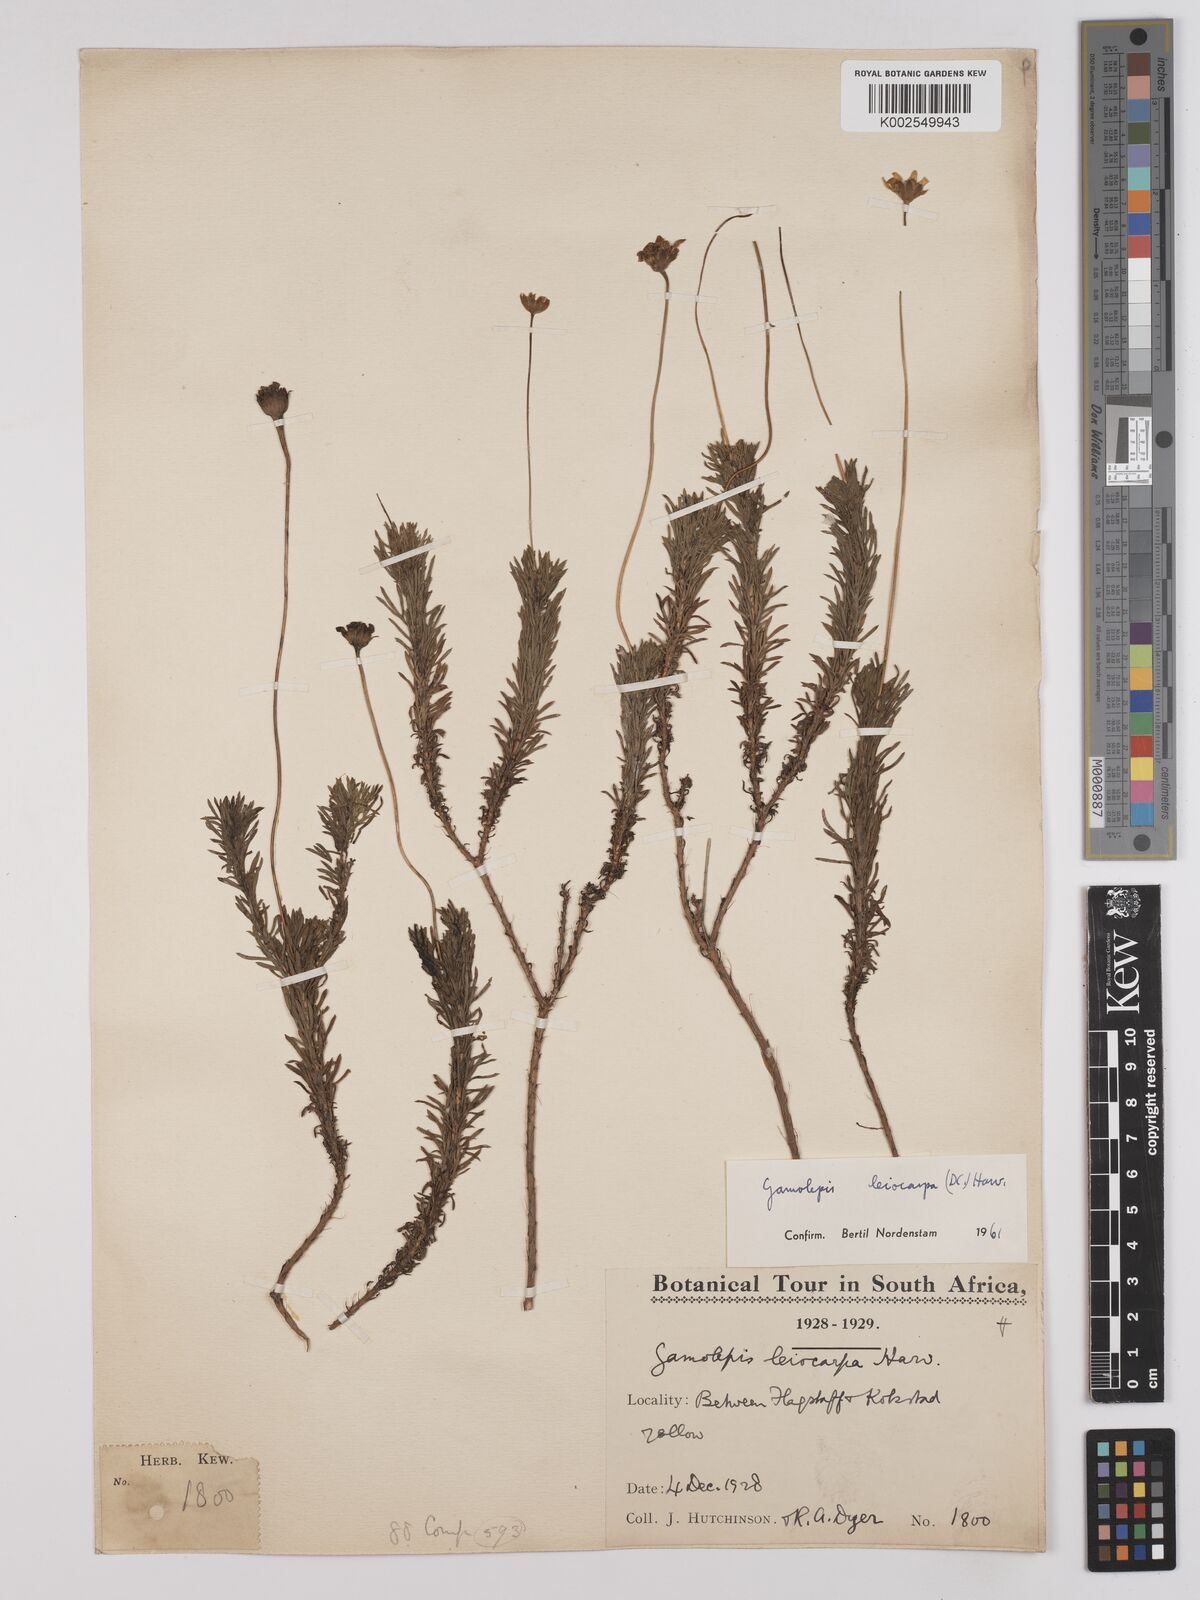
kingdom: Plantae
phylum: Tracheophyta
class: Magnoliopsida
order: Asterales
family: Asteraceae
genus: Euryops
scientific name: Euryops leiocarpus
